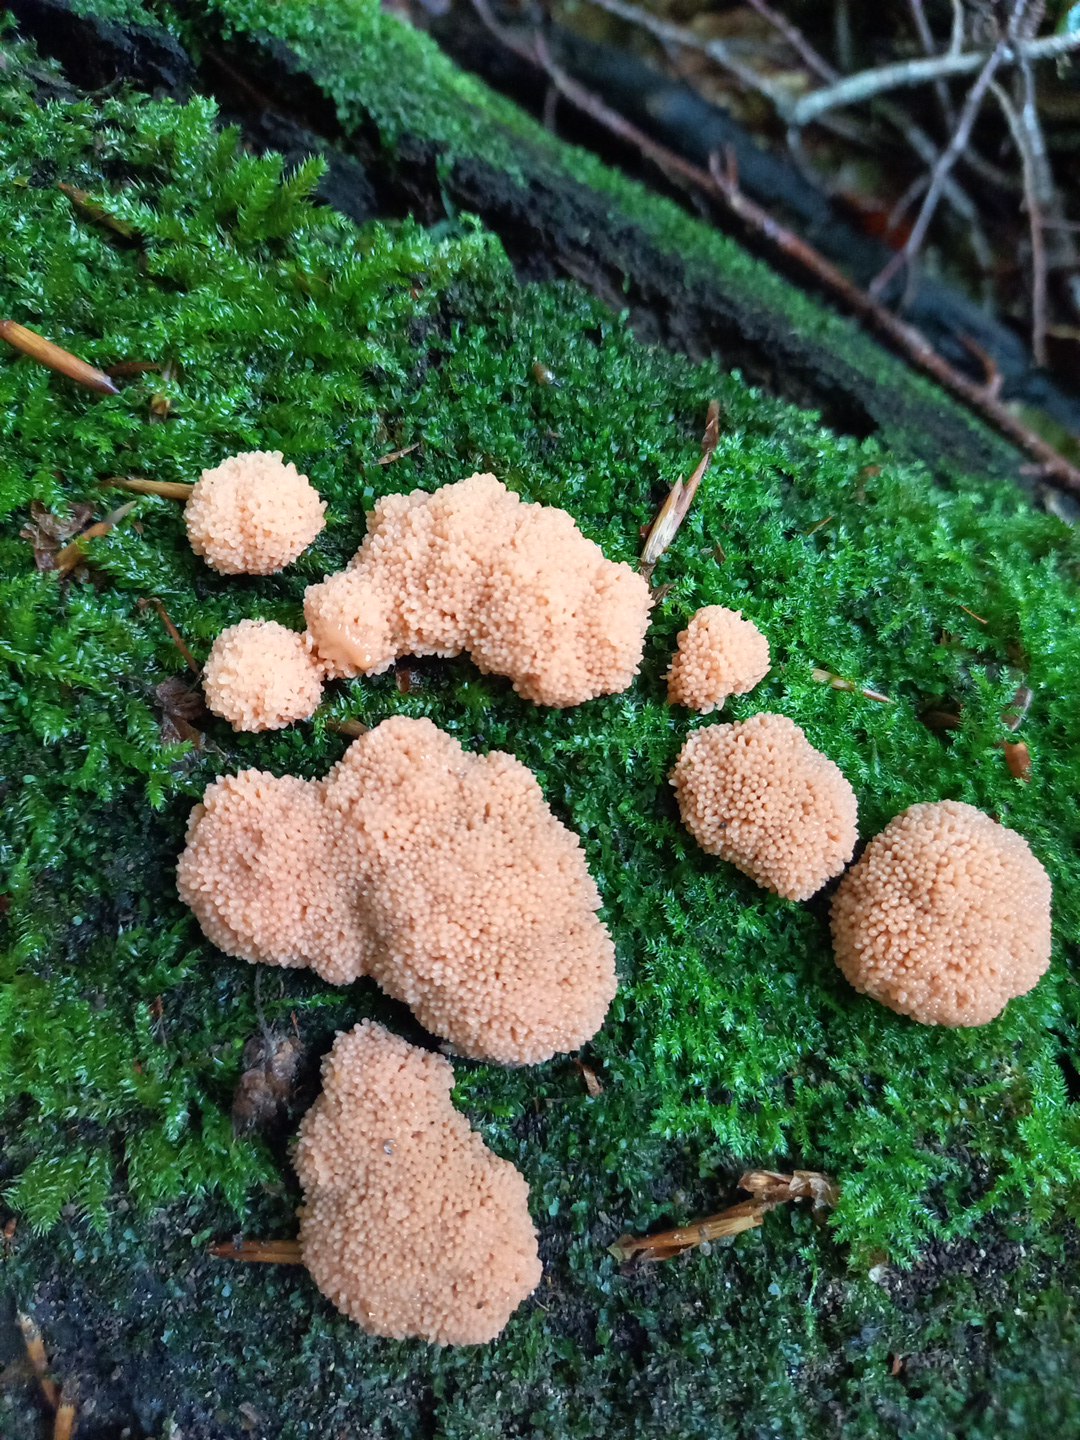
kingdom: Protozoa
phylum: Mycetozoa
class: Myxomycetes
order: Cribrariales
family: Tubiferaceae
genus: Tubifera
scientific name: Tubifera ferruginosa
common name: kanel-støvrør
